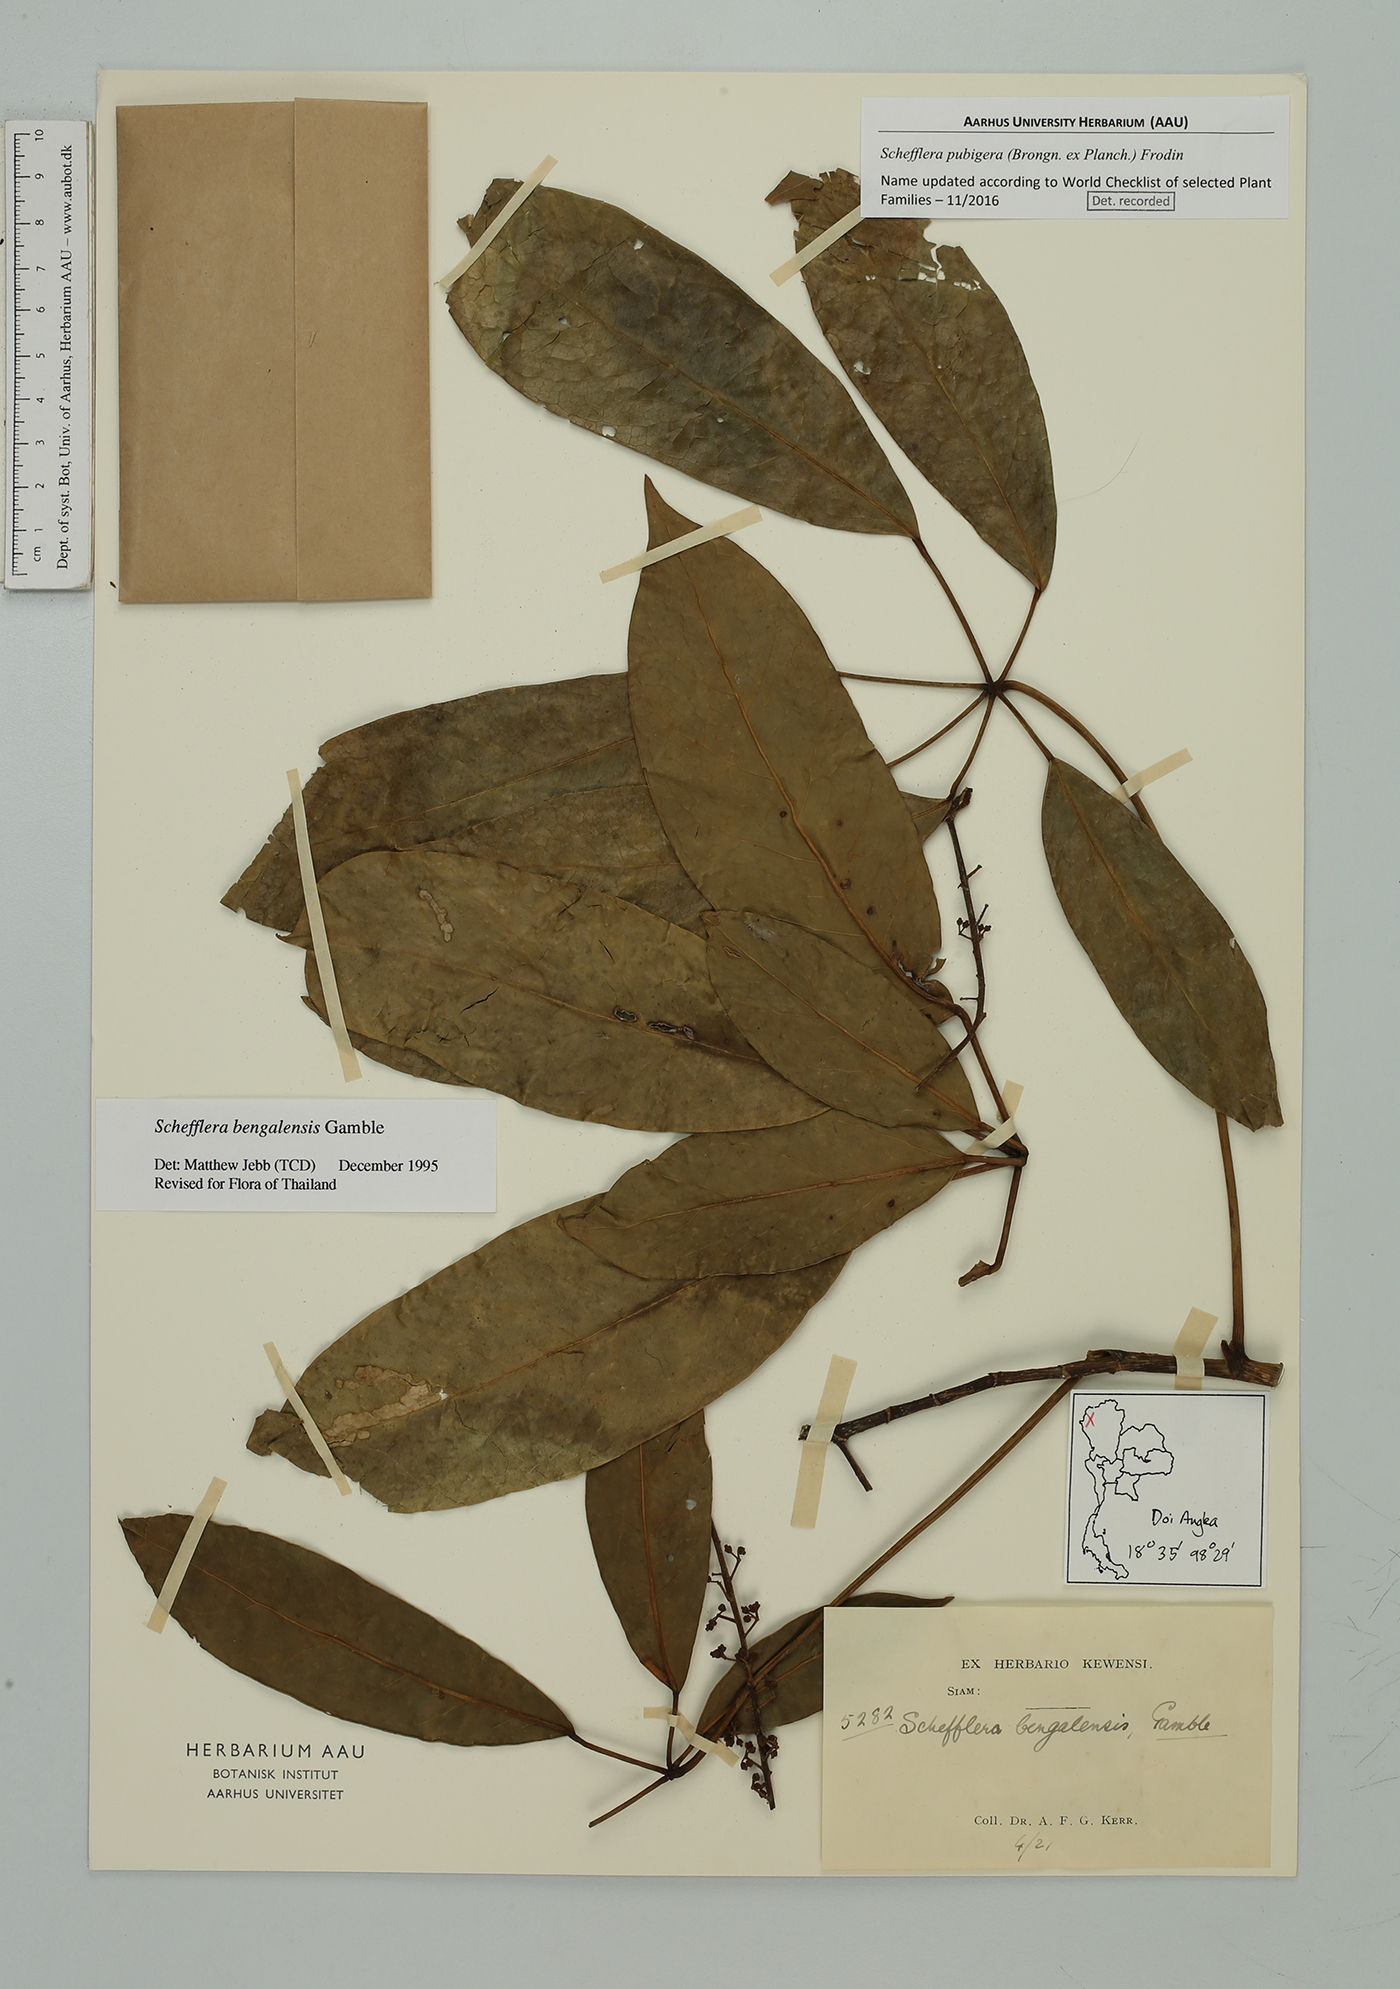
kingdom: Plantae
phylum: Tracheophyta
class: Magnoliopsida
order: Apiales
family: Araliaceae
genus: Heptapleurum
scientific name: Heptapleurum ellipticum
